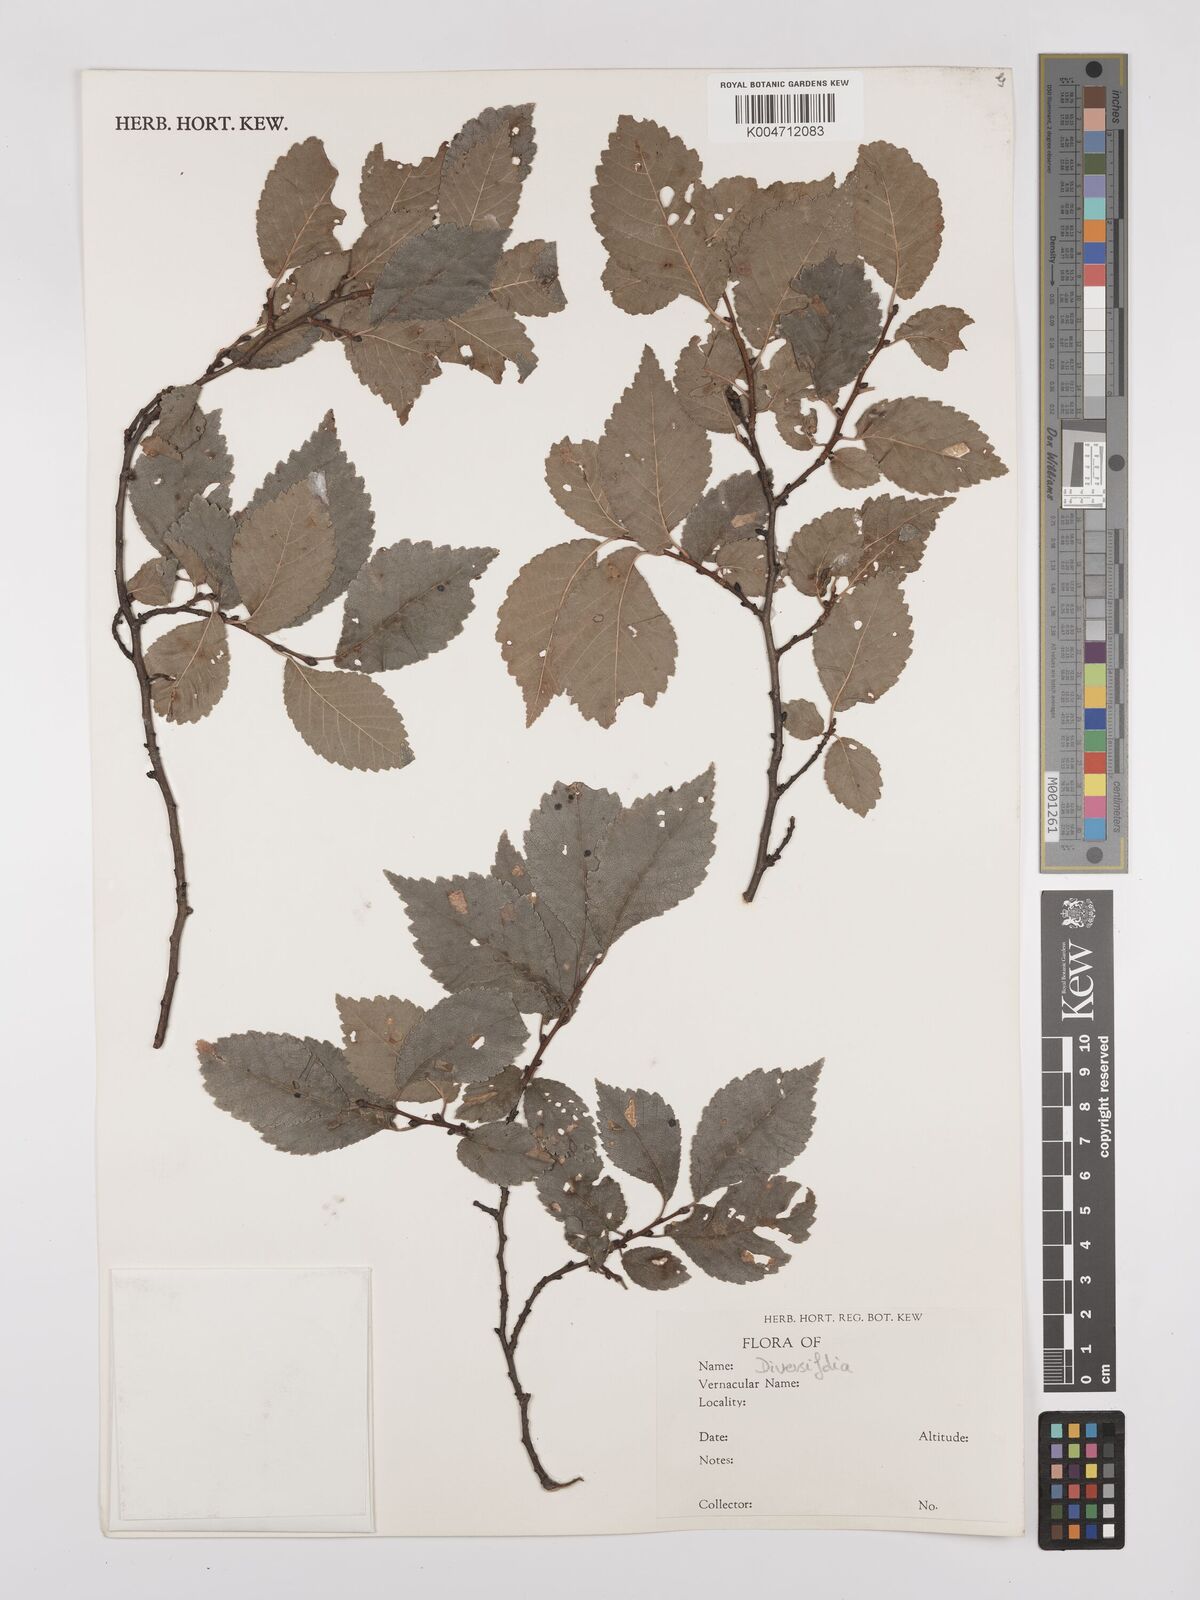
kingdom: Plantae
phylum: Tracheophyta
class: Magnoliopsida
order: Rosales
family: Ulmaceae
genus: Ulmus
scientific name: Ulmus minor
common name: Small-leaved elm
